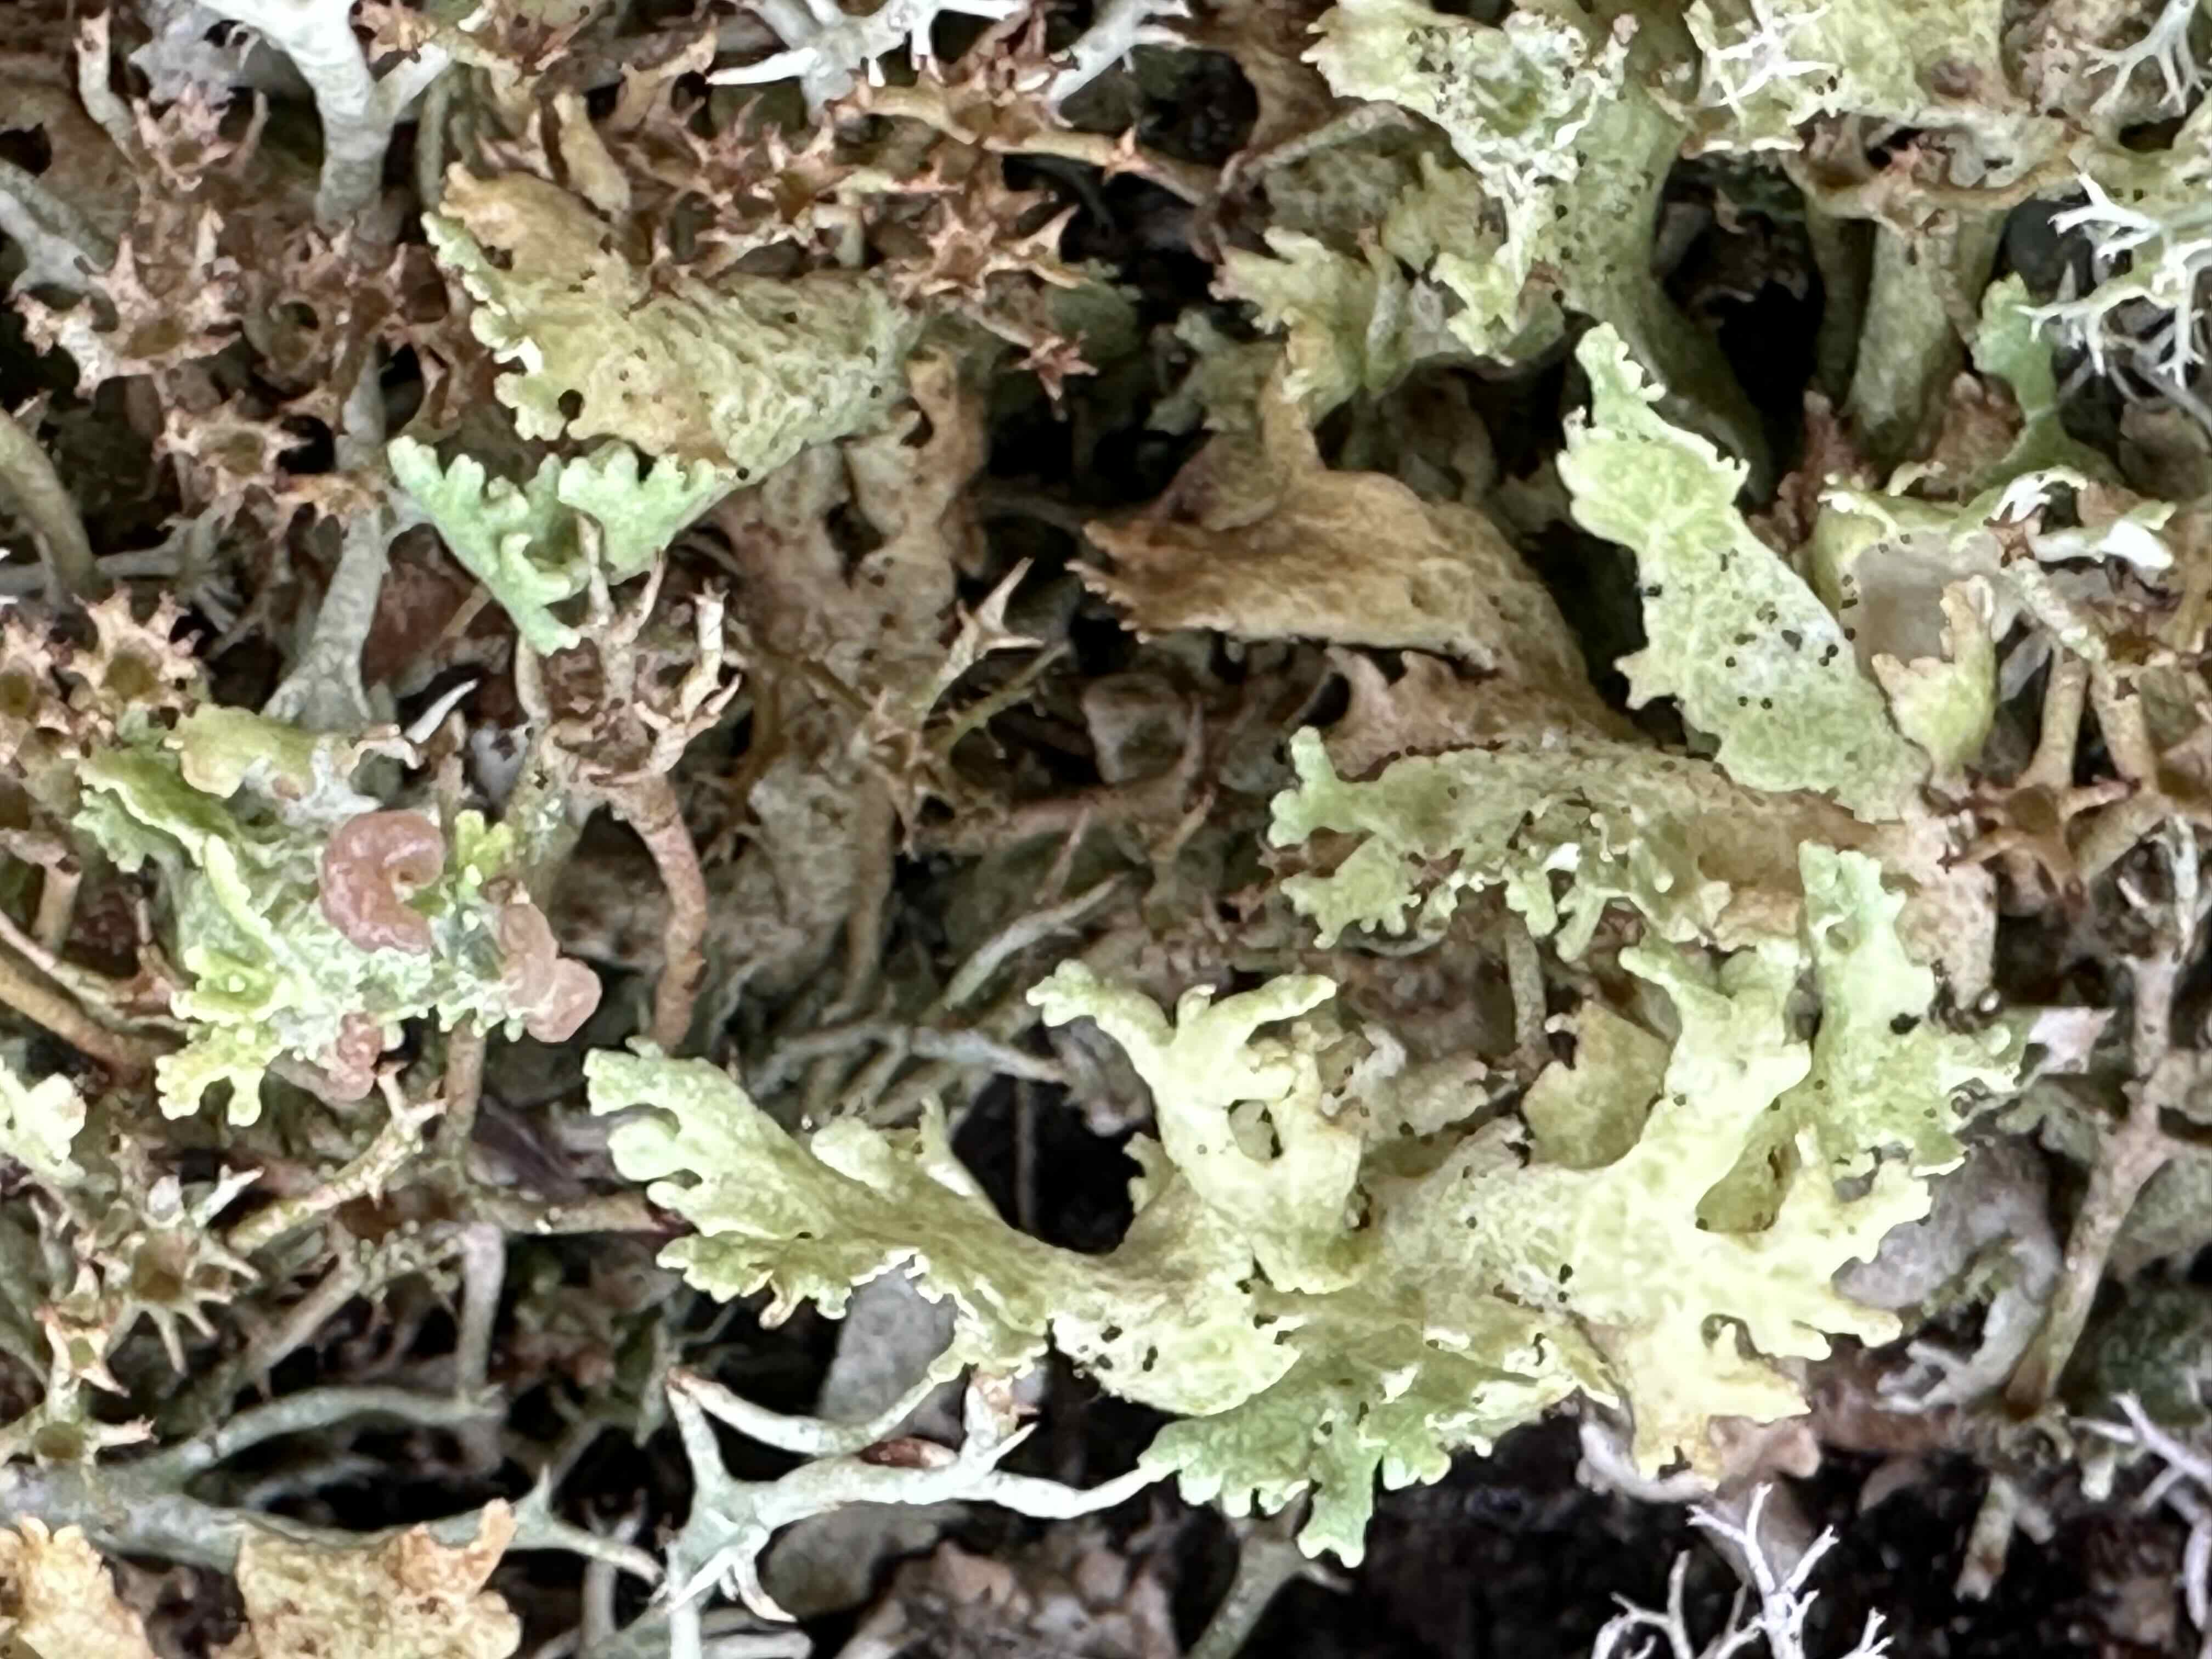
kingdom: Fungi
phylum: Ascomycota
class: Lecanoromycetes
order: Lecanorales
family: Cladoniaceae
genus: Cladonia
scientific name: Cladonia foliacea
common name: fliget bægerlav
